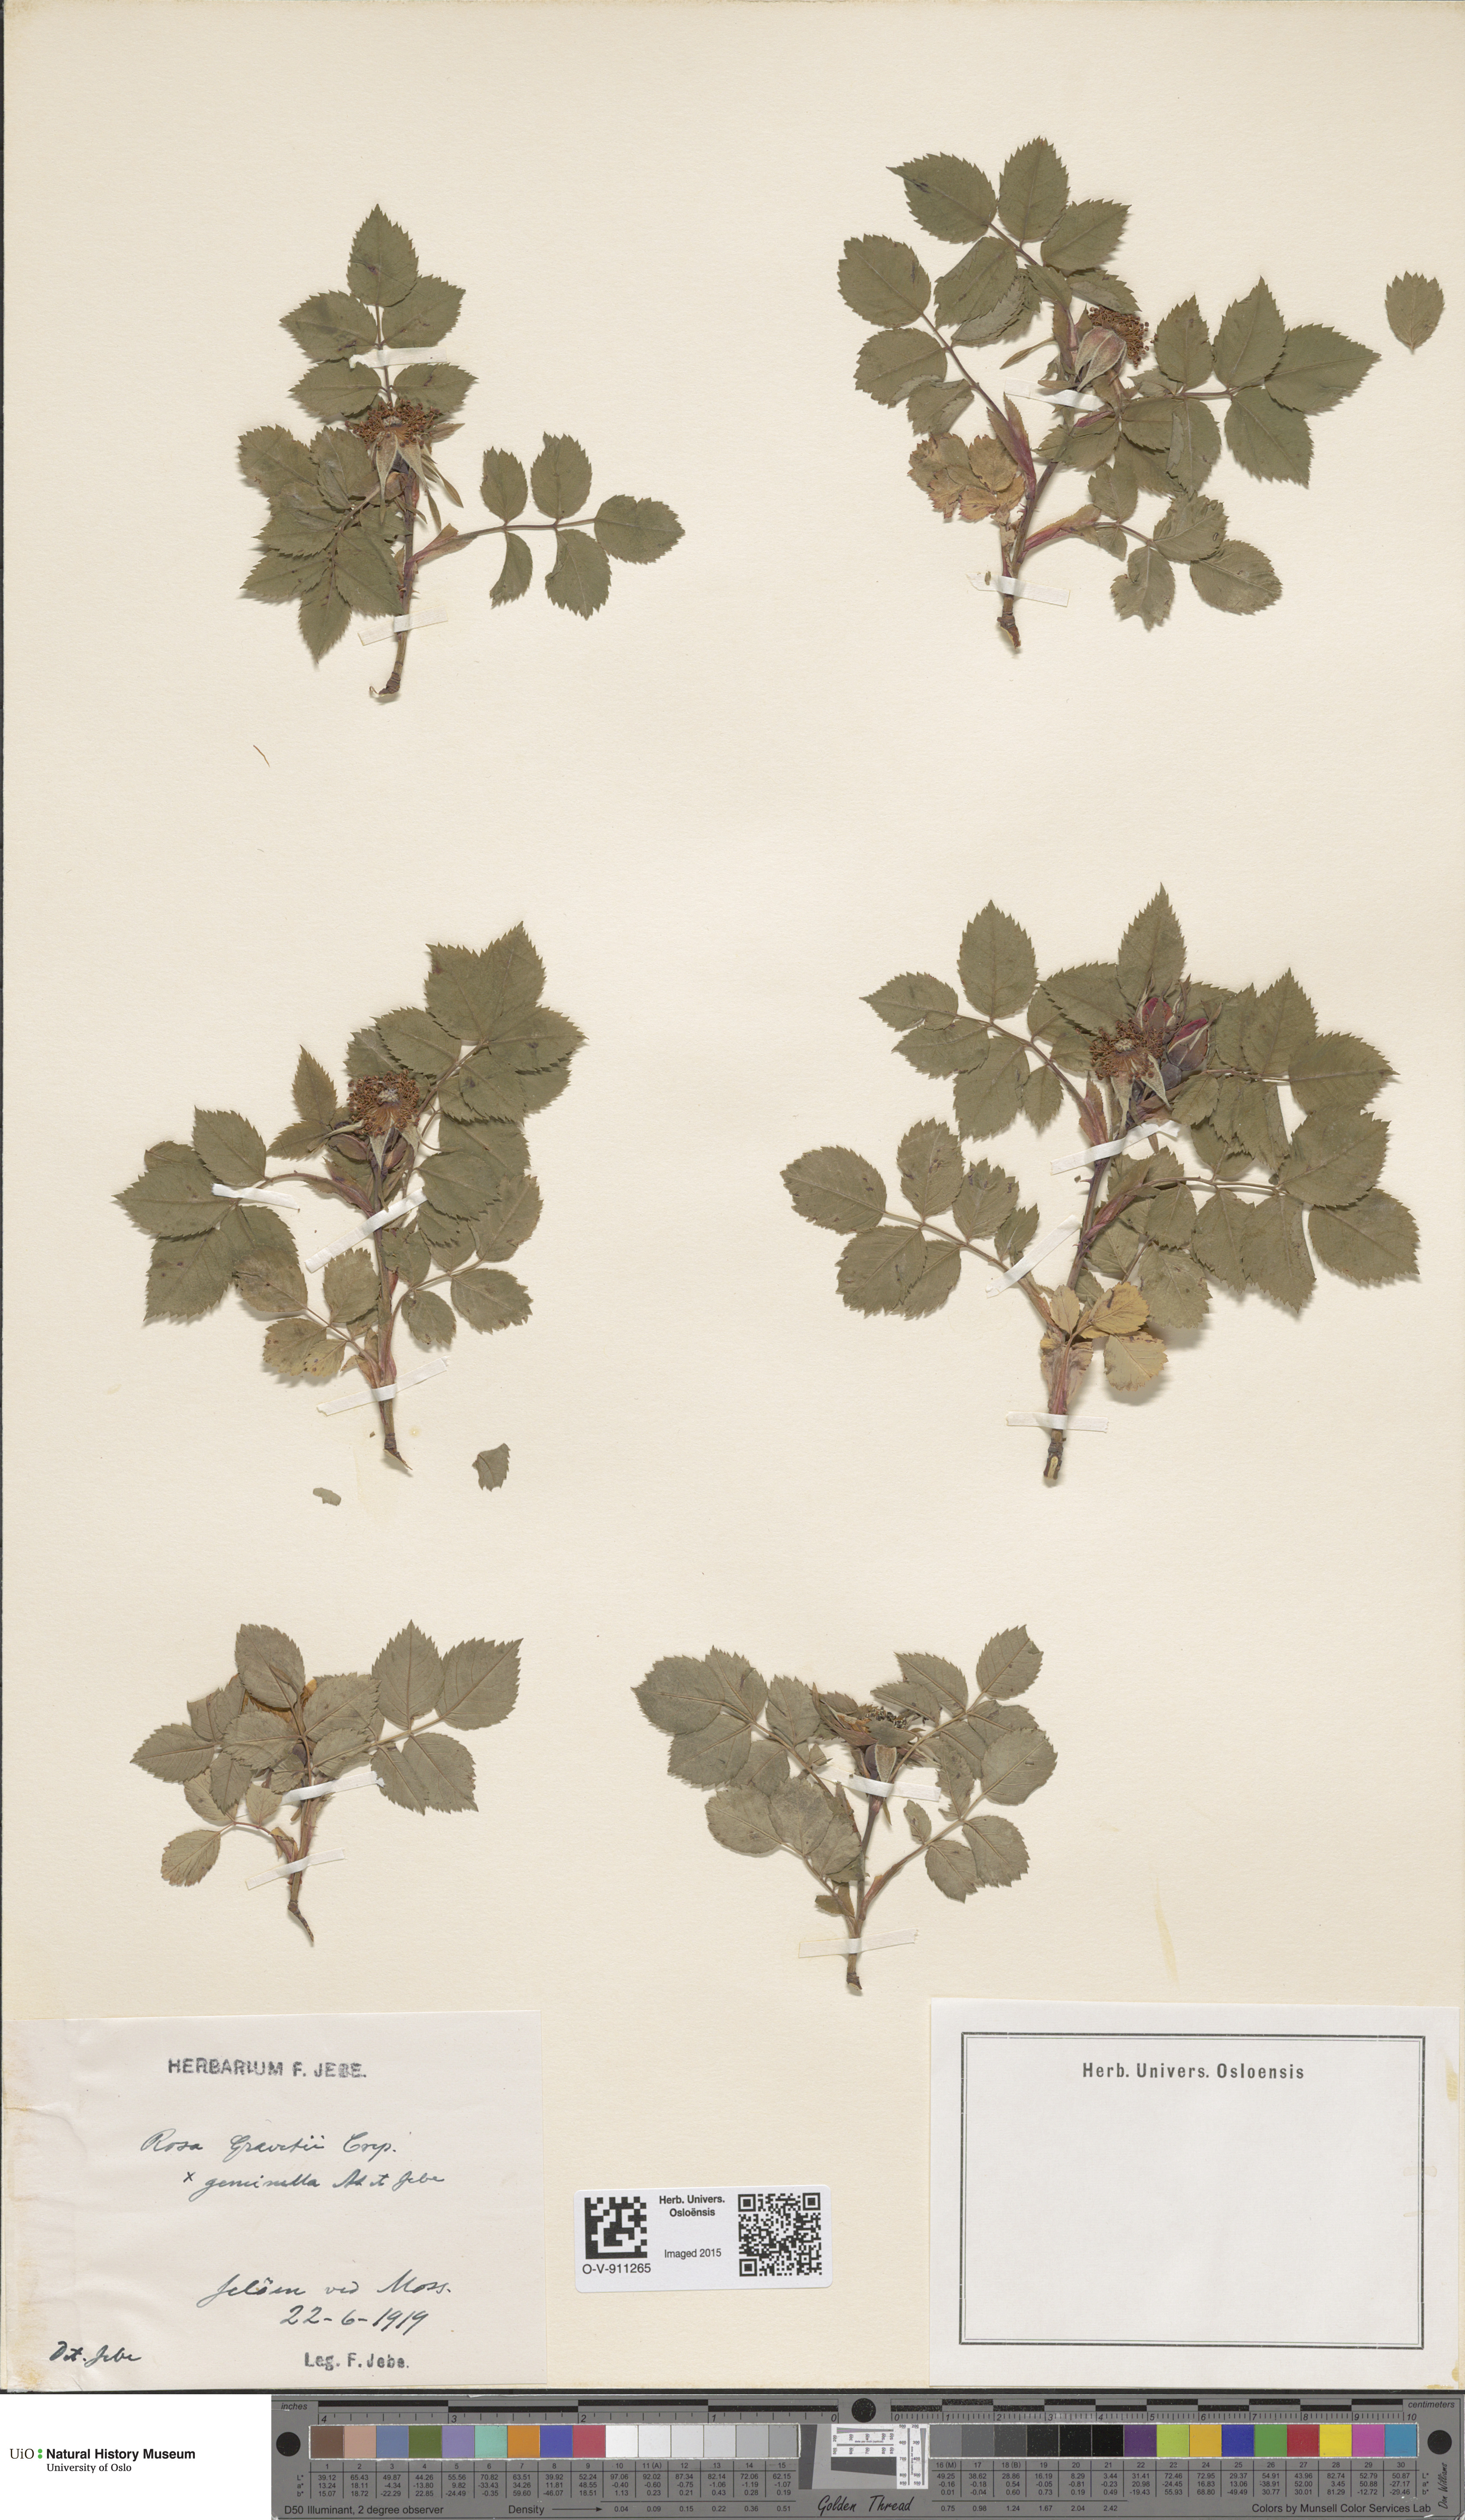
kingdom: Plantae
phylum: Tracheophyta
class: Magnoliopsida
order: Rosales
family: Rosaceae
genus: Rosa
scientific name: Rosa subcanina
